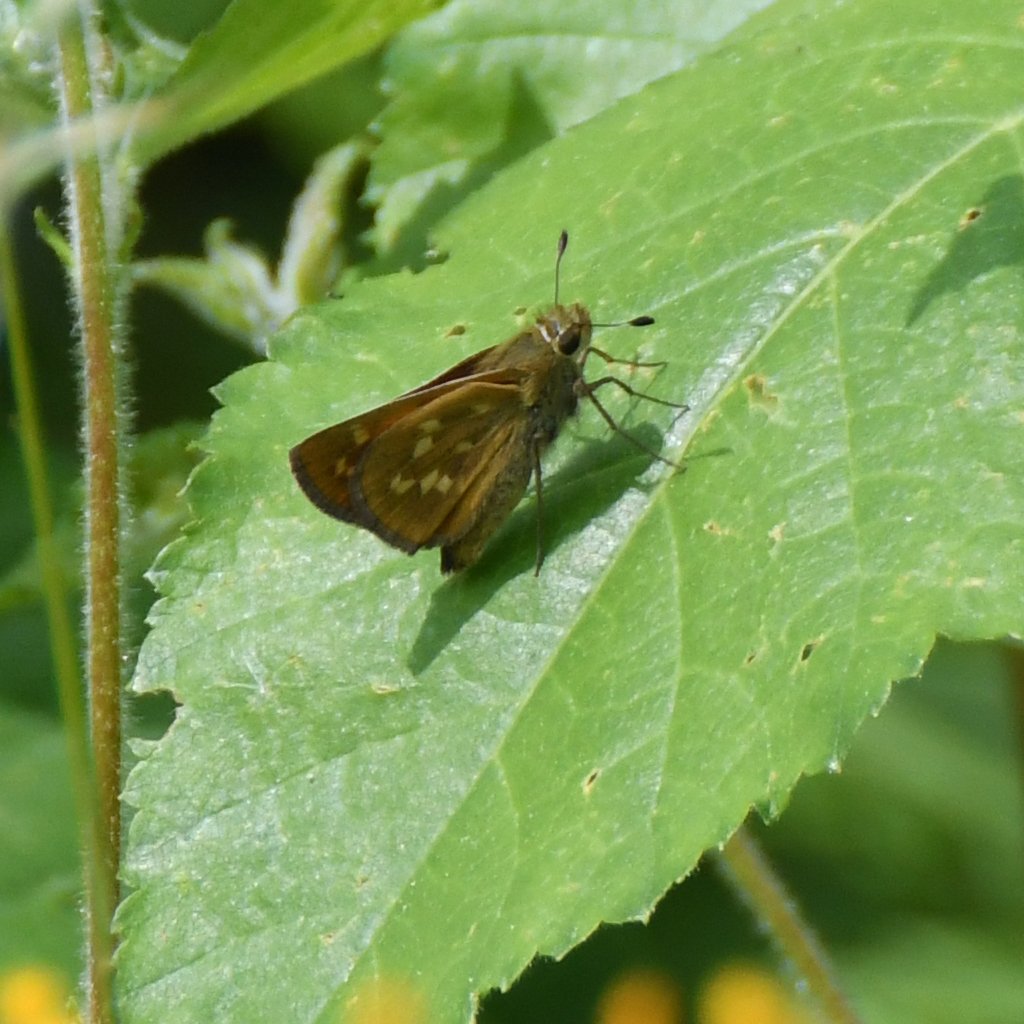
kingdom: Animalia
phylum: Arthropoda
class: Insecta
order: Lepidoptera
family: Hesperiidae
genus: Hesperia
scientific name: Hesperia sassacus
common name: Sassacus Skipper
